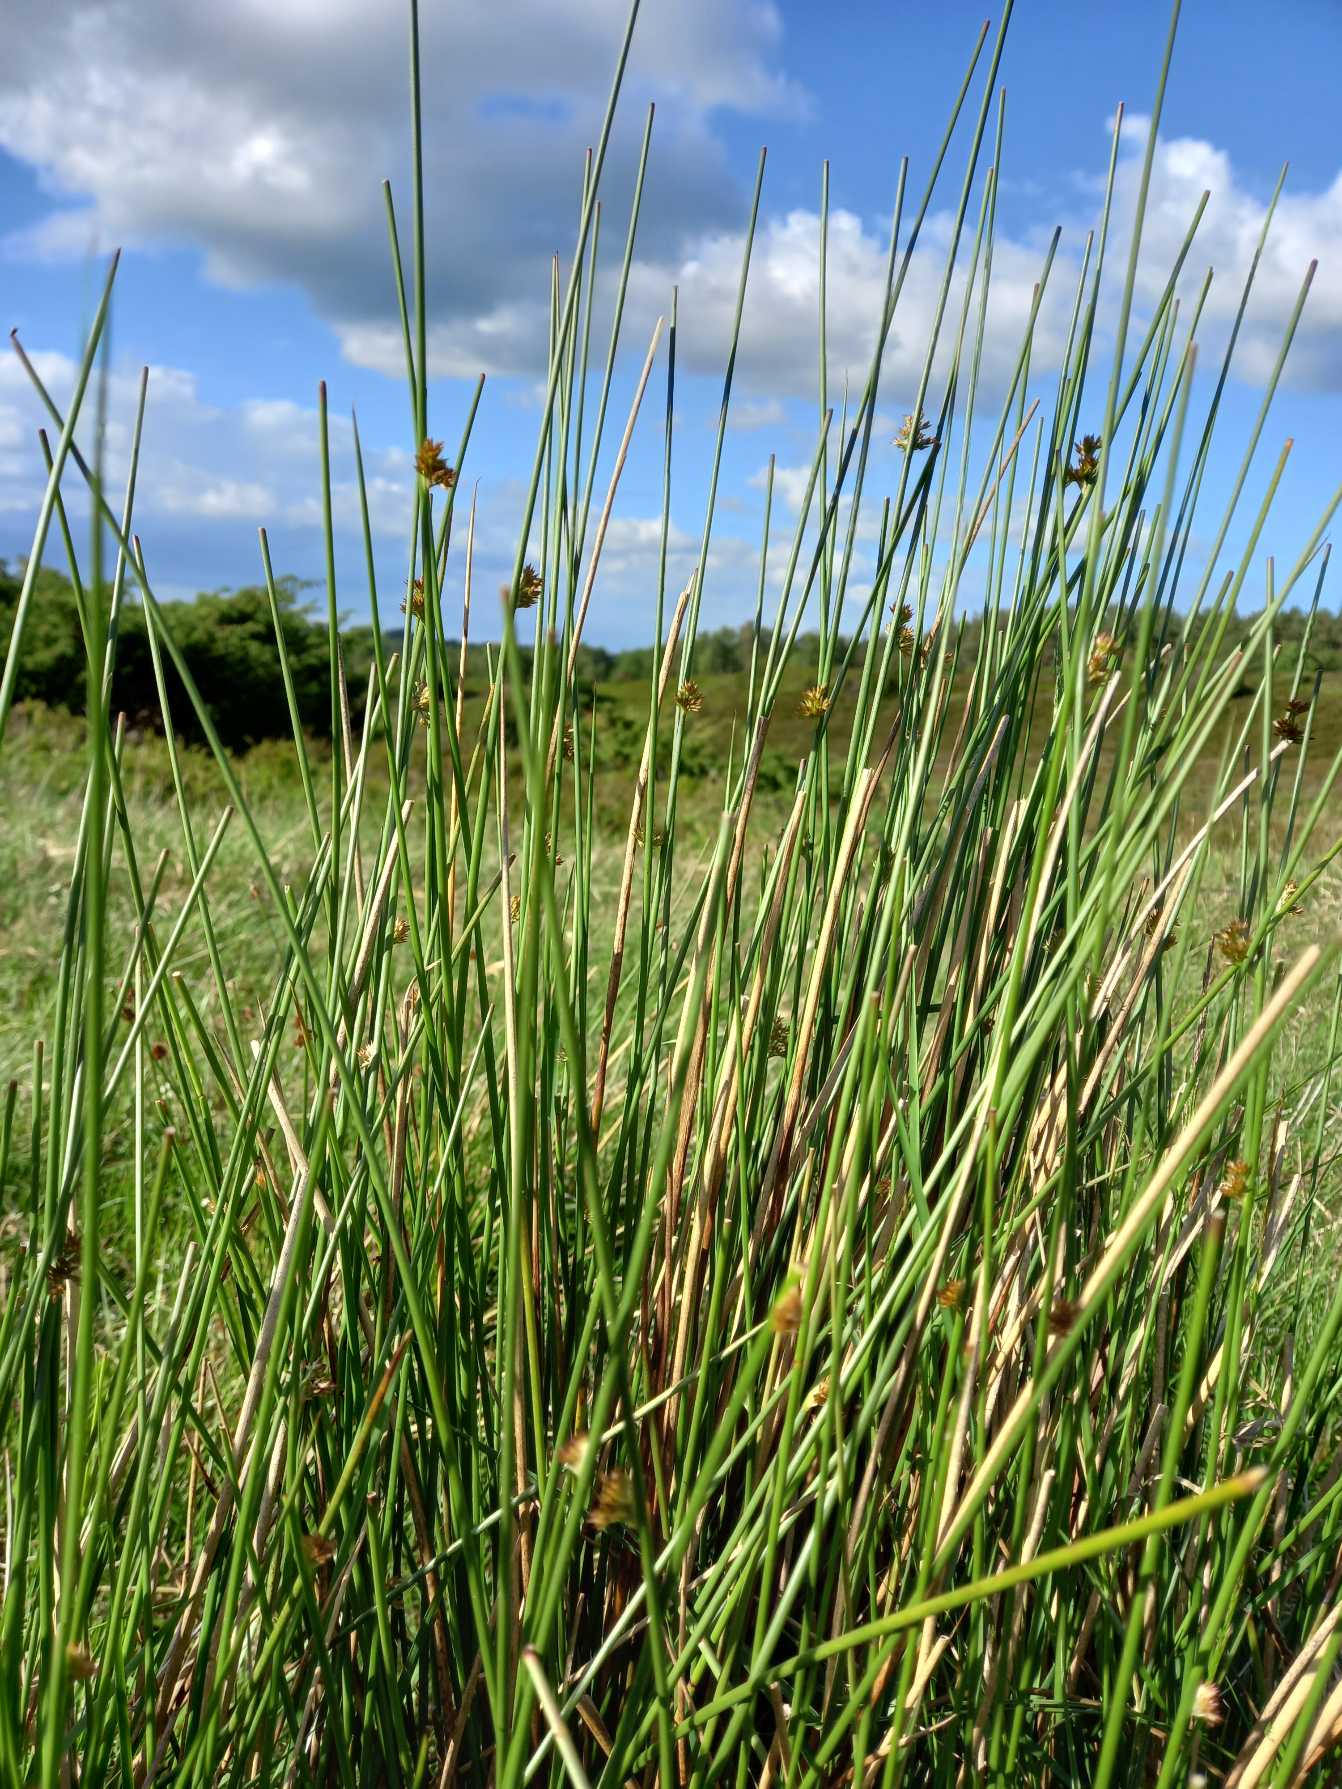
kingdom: Plantae
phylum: Tracheophyta
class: Liliopsida
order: Poales
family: Juncaceae
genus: Juncus
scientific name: Juncus effusus
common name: Lyse-siv
